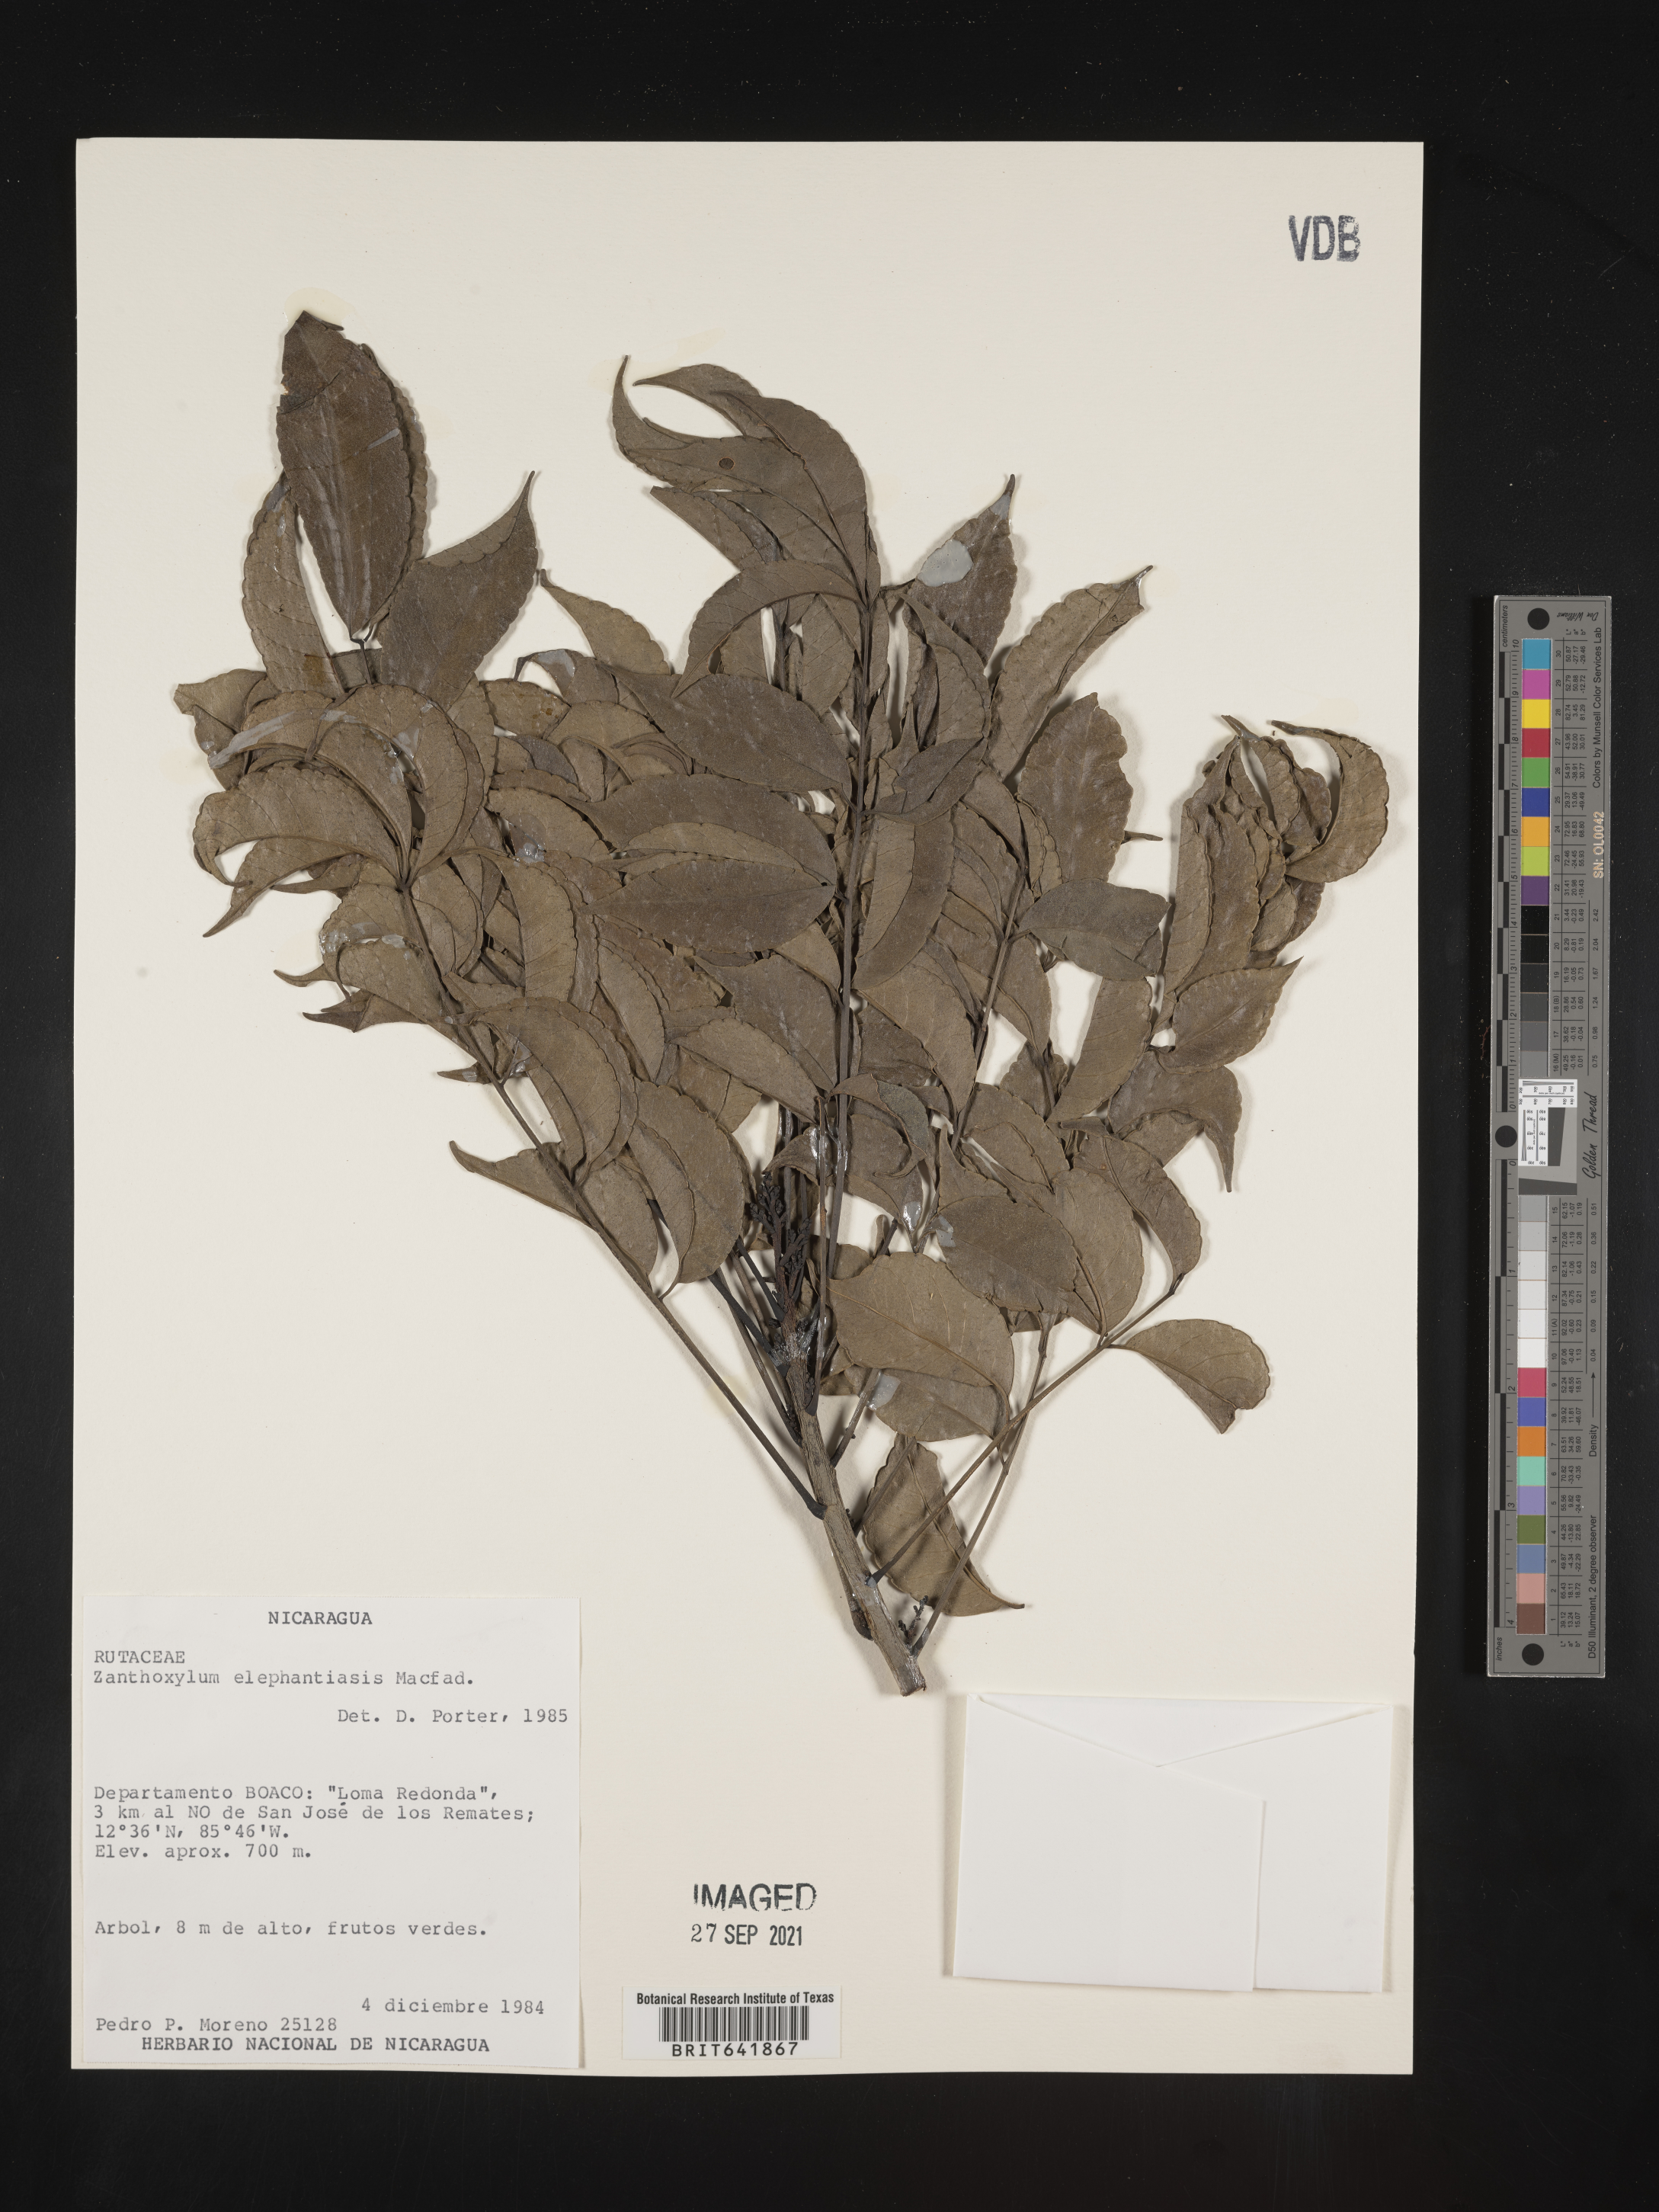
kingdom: Plantae
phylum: Tracheophyta
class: Magnoliopsida
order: Sapindales
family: Rutaceae
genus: Zanthoxylum
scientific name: Zanthoxylum
